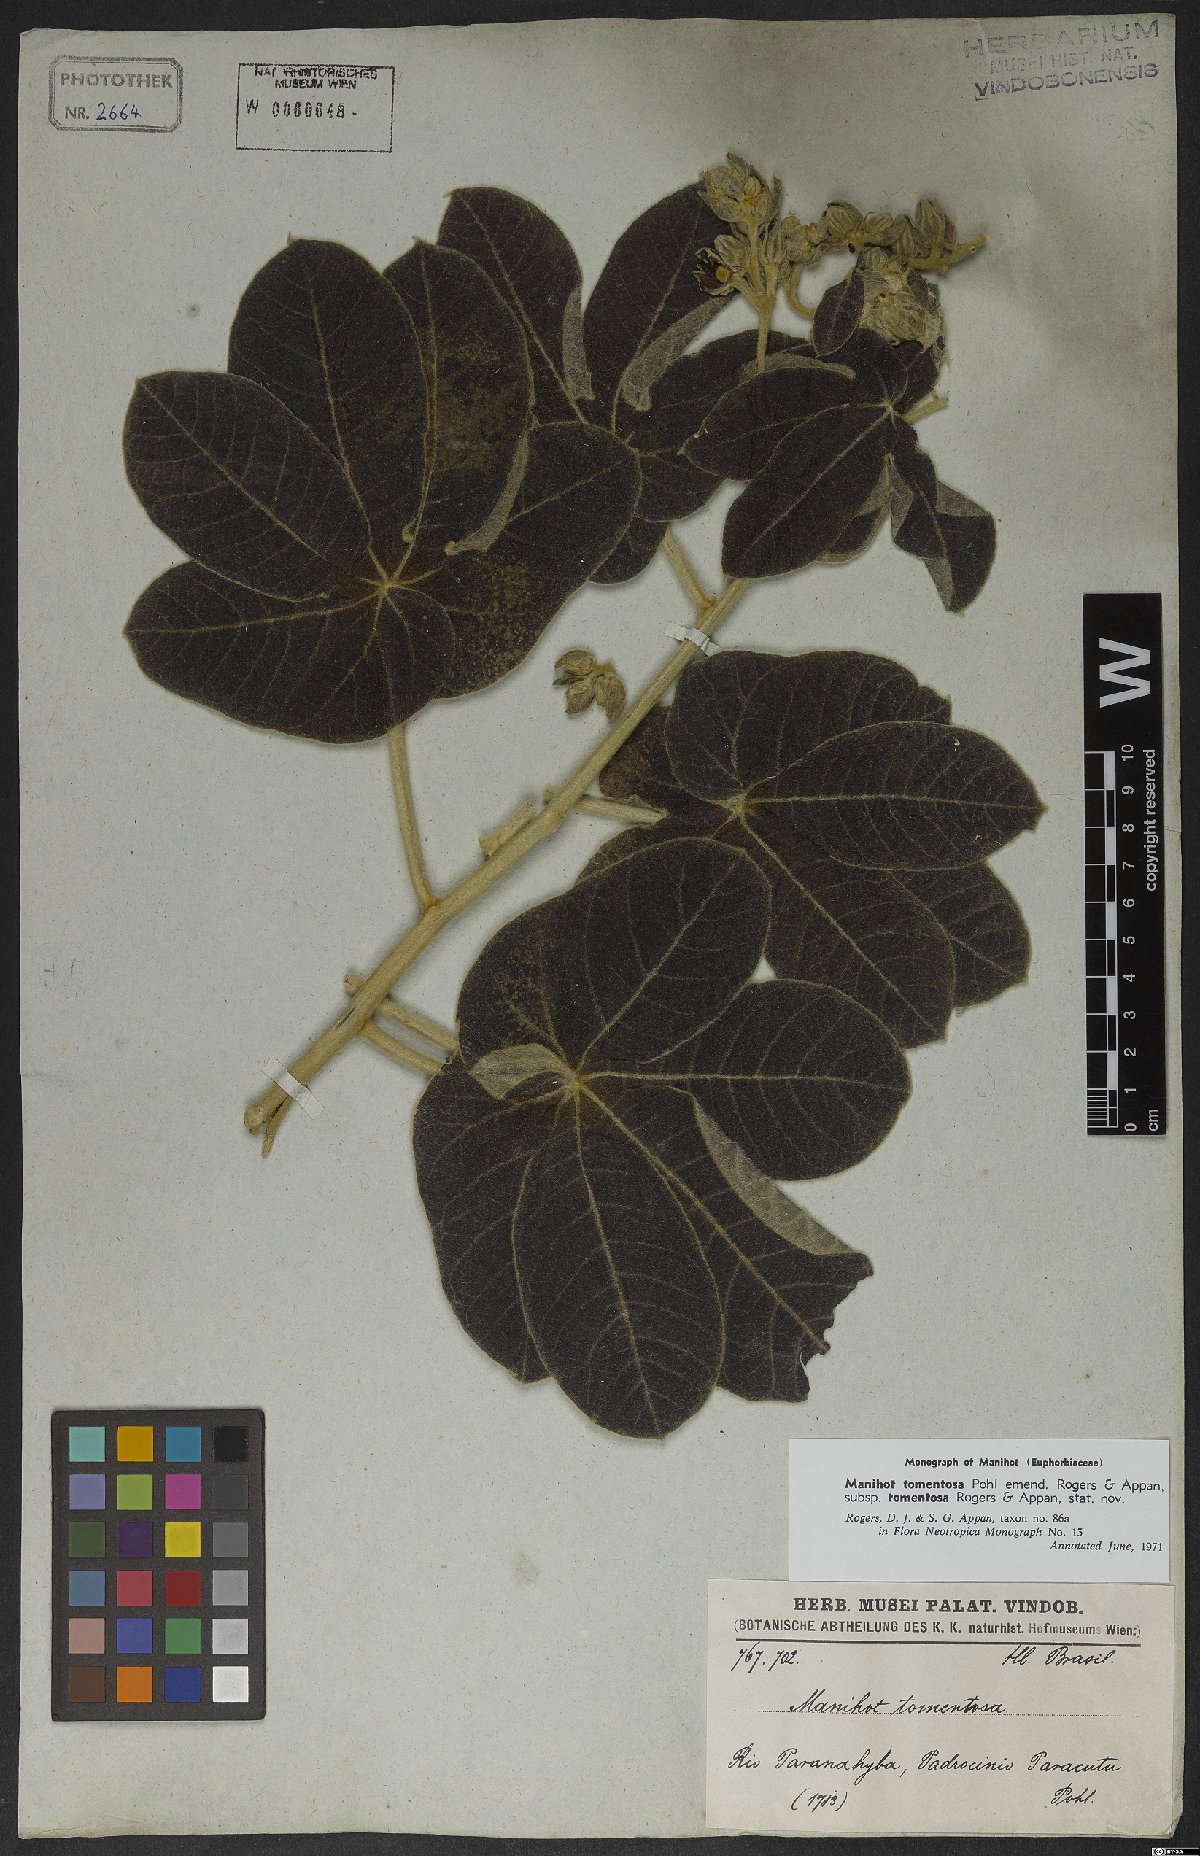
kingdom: Plantae
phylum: Tracheophyta
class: Magnoliopsida
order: Malpighiales
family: Euphorbiaceae
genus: Manihot
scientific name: Manihot tomentosa
